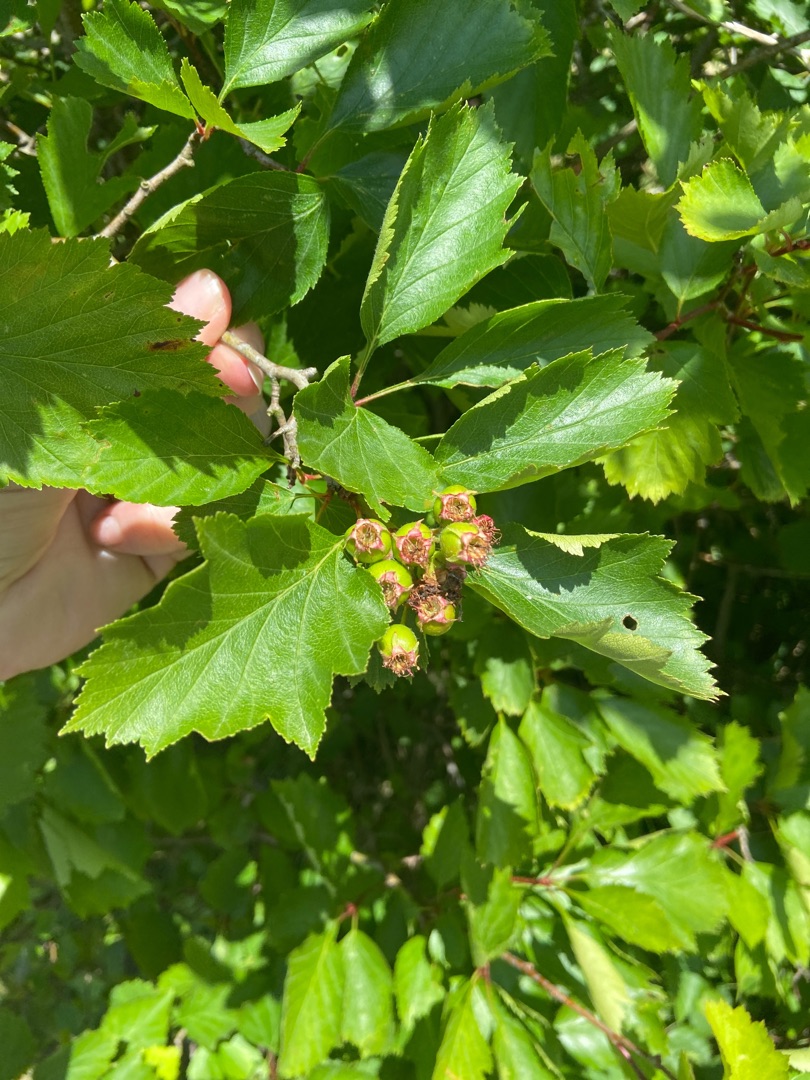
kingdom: Plantae
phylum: Tracheophyta
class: Magnoliopsida
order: Rosales
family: Rosaceae
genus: Crataegus
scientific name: Crataegus
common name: Hvidtjørnslægten
